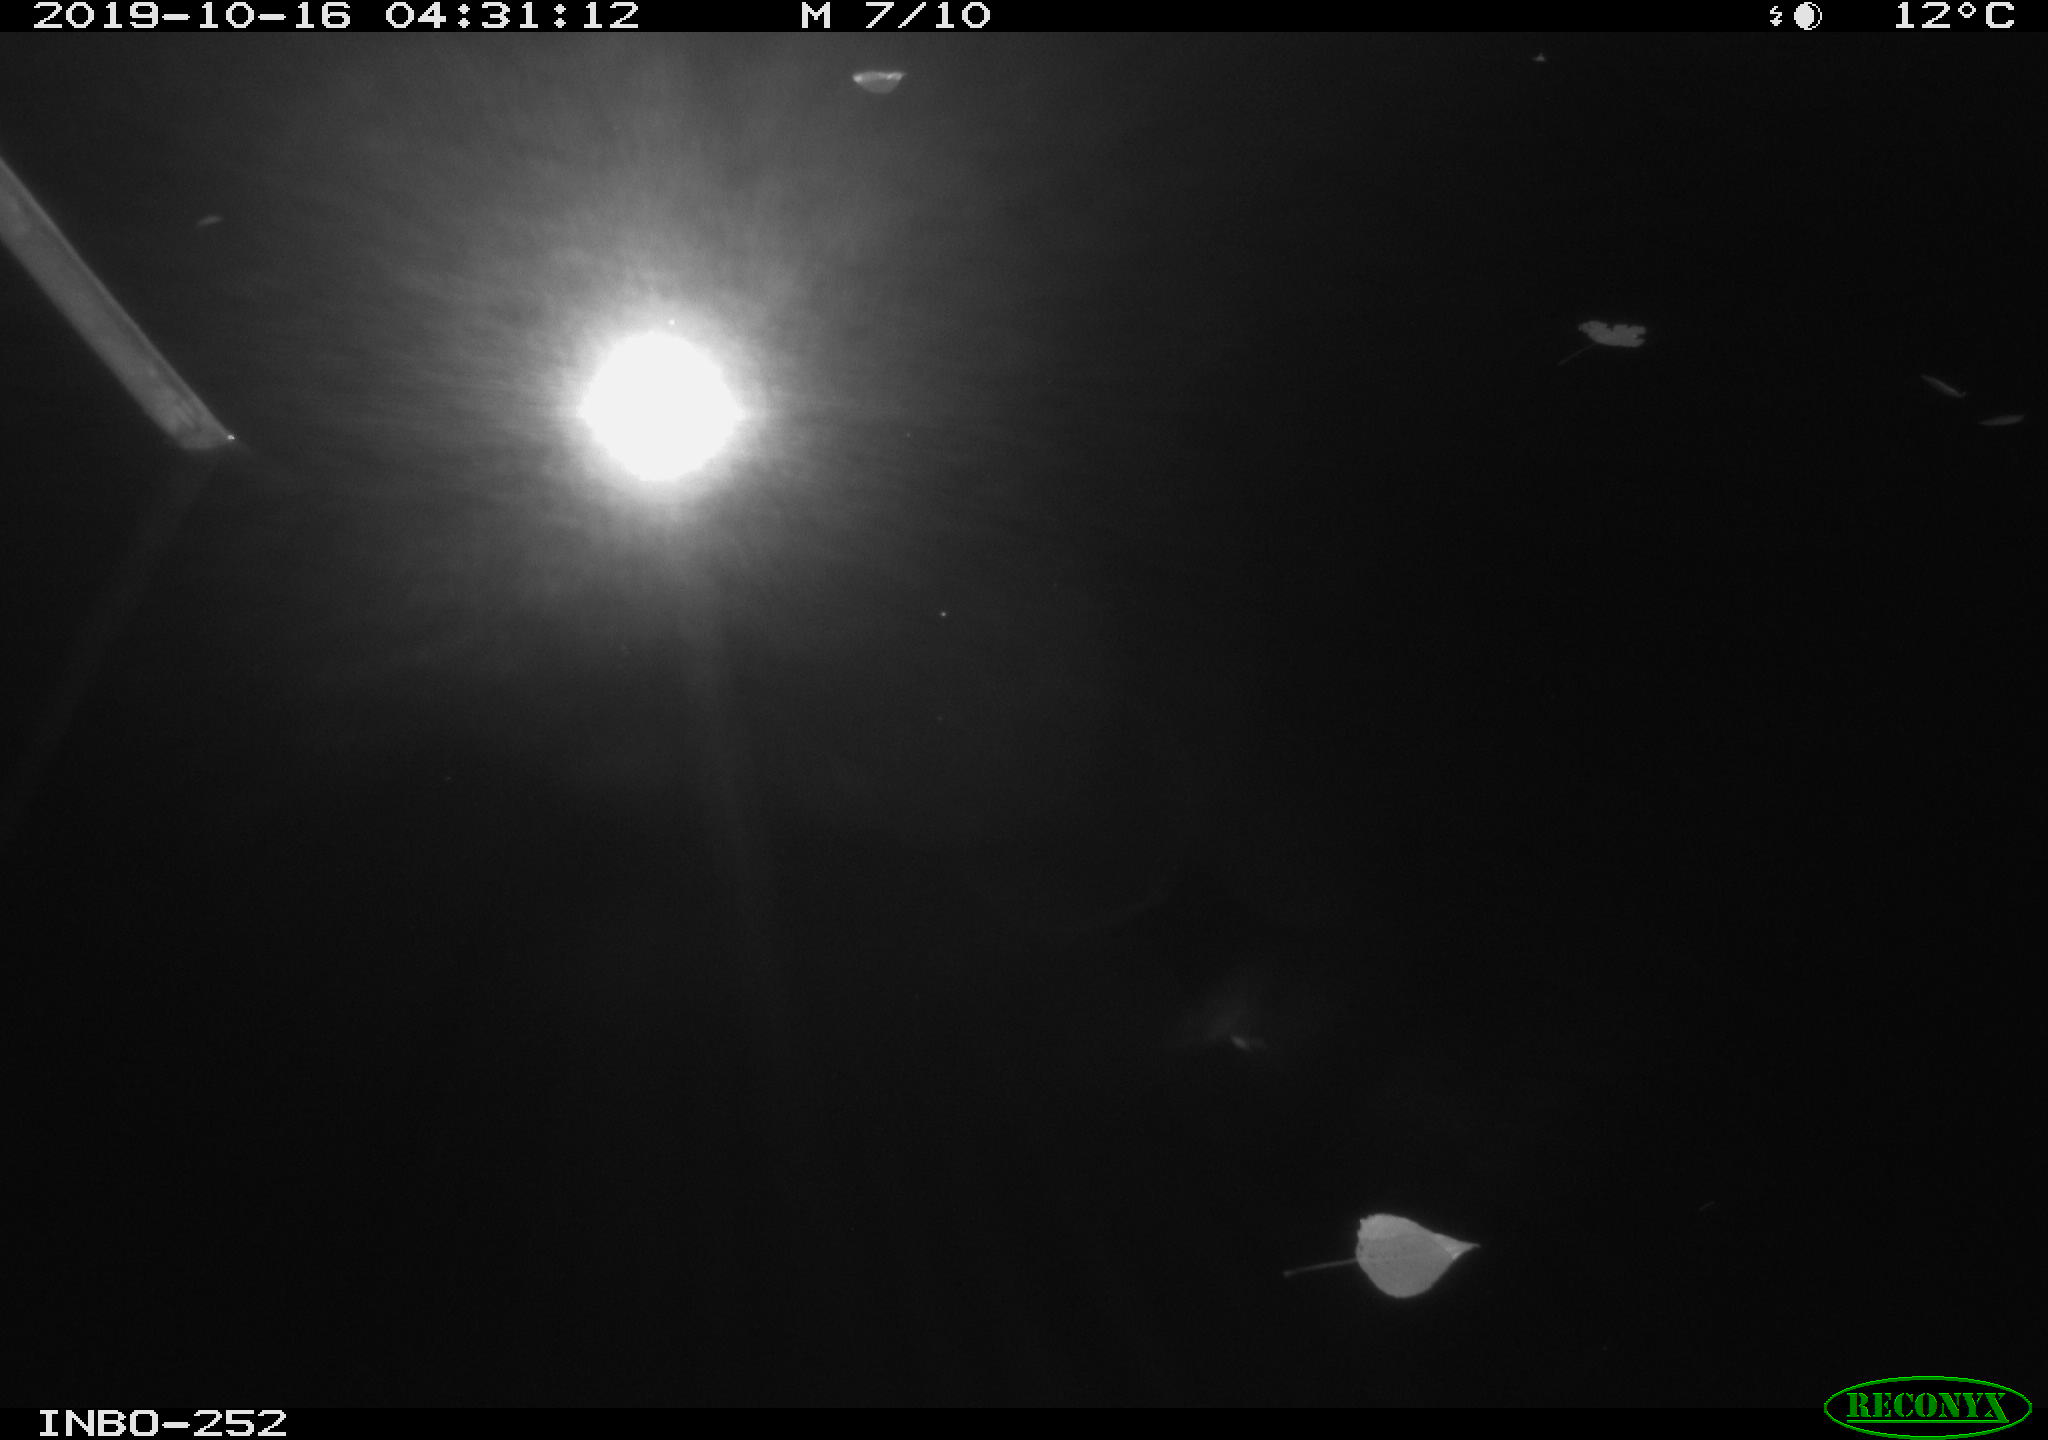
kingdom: Animalia
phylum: Chordata
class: Aves
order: Anseriformes
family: Anatidae
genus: Anas
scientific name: Anas platyrhynchos
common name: Mallard
